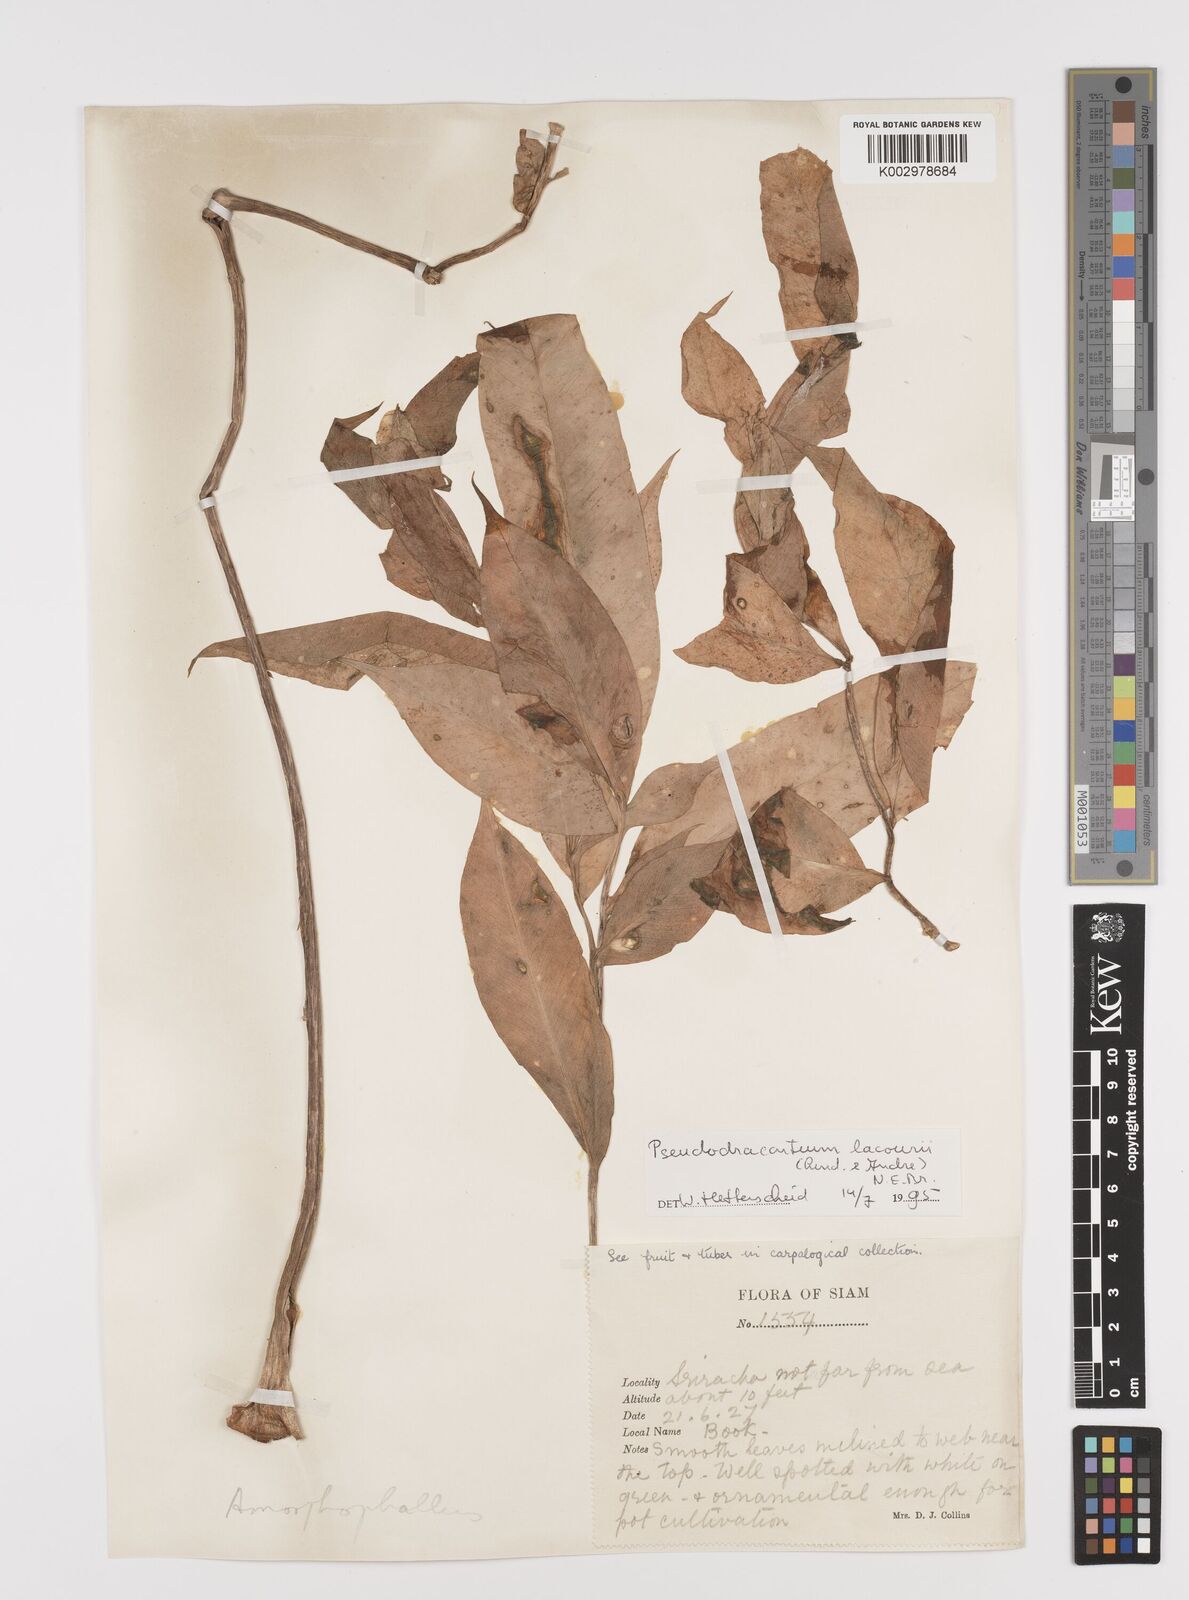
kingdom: Plantae
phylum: Tracheophyta
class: Liliopsida
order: Alismatales
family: Araceae
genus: Amorphophallus
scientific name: Amorphophallus lacourii
